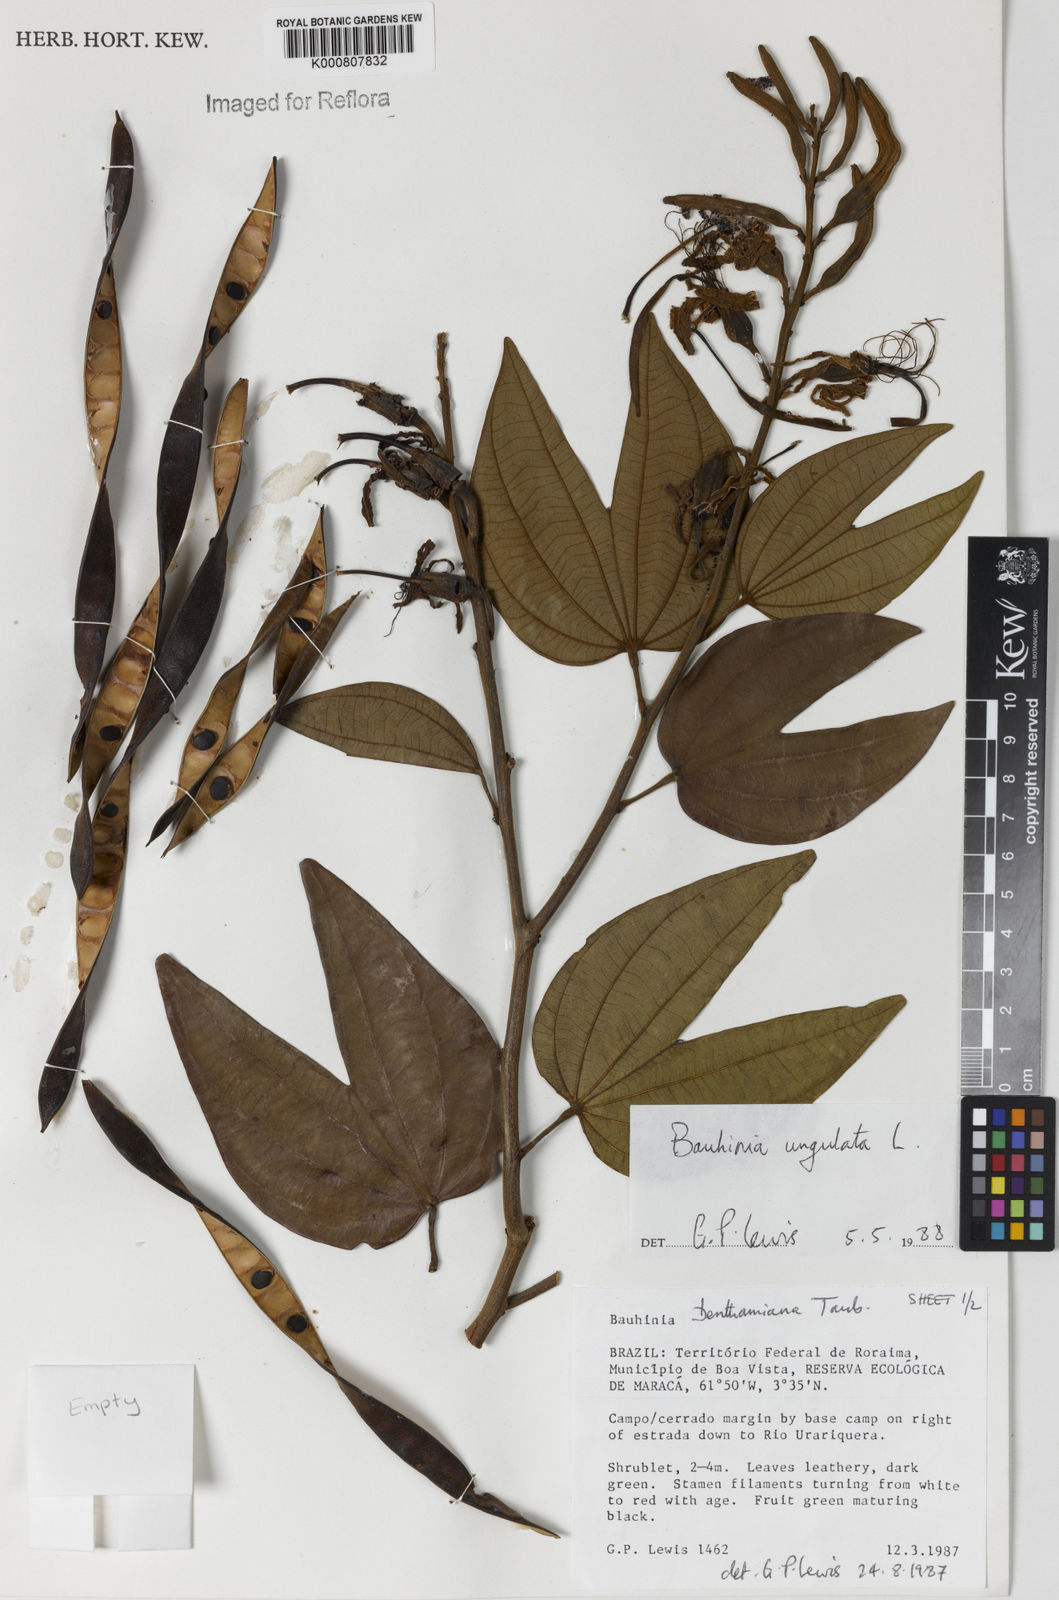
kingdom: Plantae
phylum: Tracheophyta
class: Magnoliopsida
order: Fabales
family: Fabaceae
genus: Bauhinia
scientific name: Bauhinia ungulata
